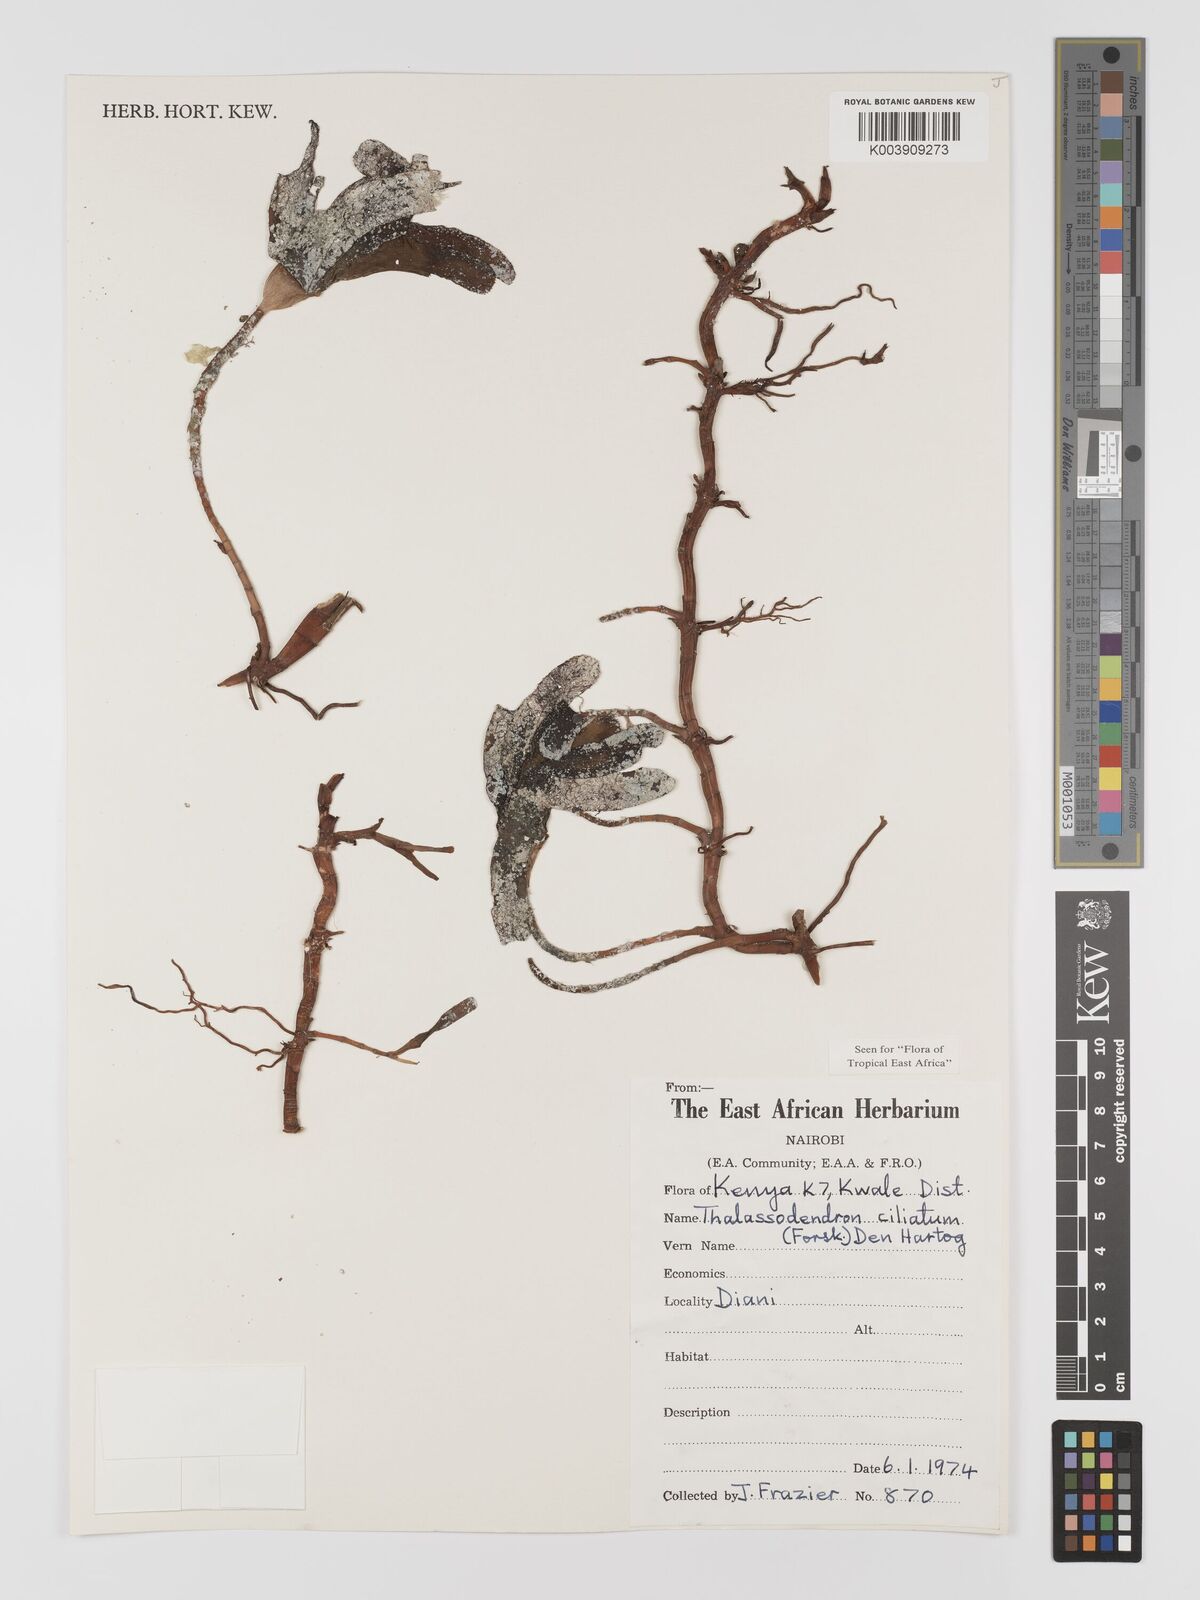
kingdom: Plantae
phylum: Tracheophyta
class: Liliopsida
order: Alismatales
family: Cymodoceaceae
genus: Thalassodendron
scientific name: Thalassodendron ciliatum
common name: Species code: tc
